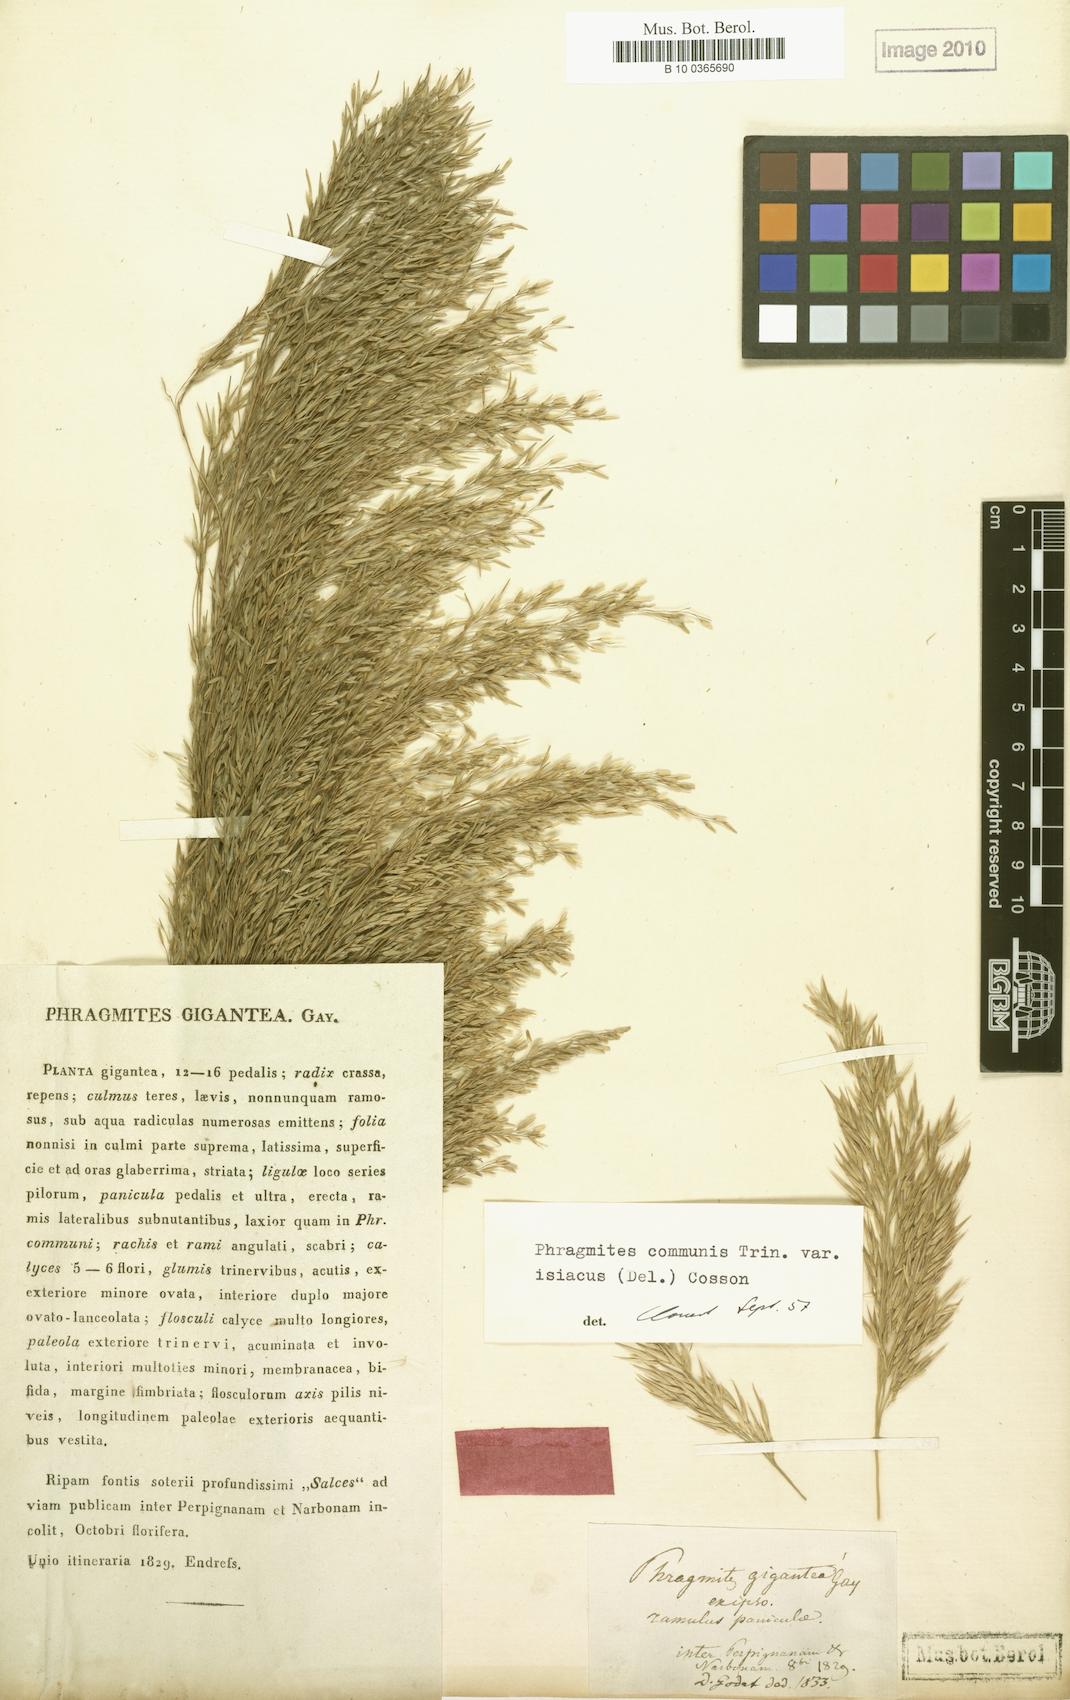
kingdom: Plantae
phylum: Tracheophyta
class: Liliopsida
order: Poales
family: Poaceae
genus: Phragmites
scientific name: Phragmites australis
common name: Common reed
